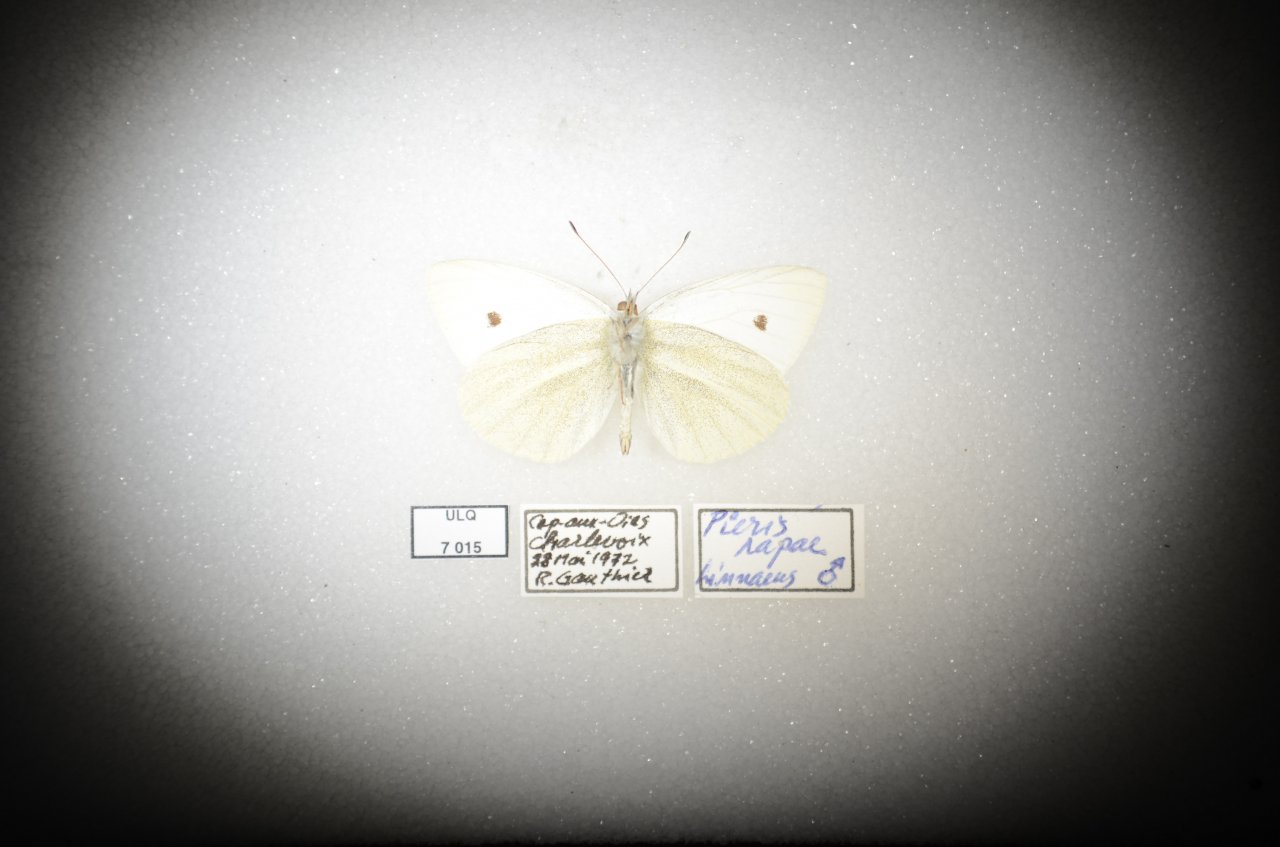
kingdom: Animalia
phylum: Arthropoda
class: Insecta
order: Lepidoptera
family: Pieridae
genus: Pieris
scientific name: Pieris rapae
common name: Cabbage White
